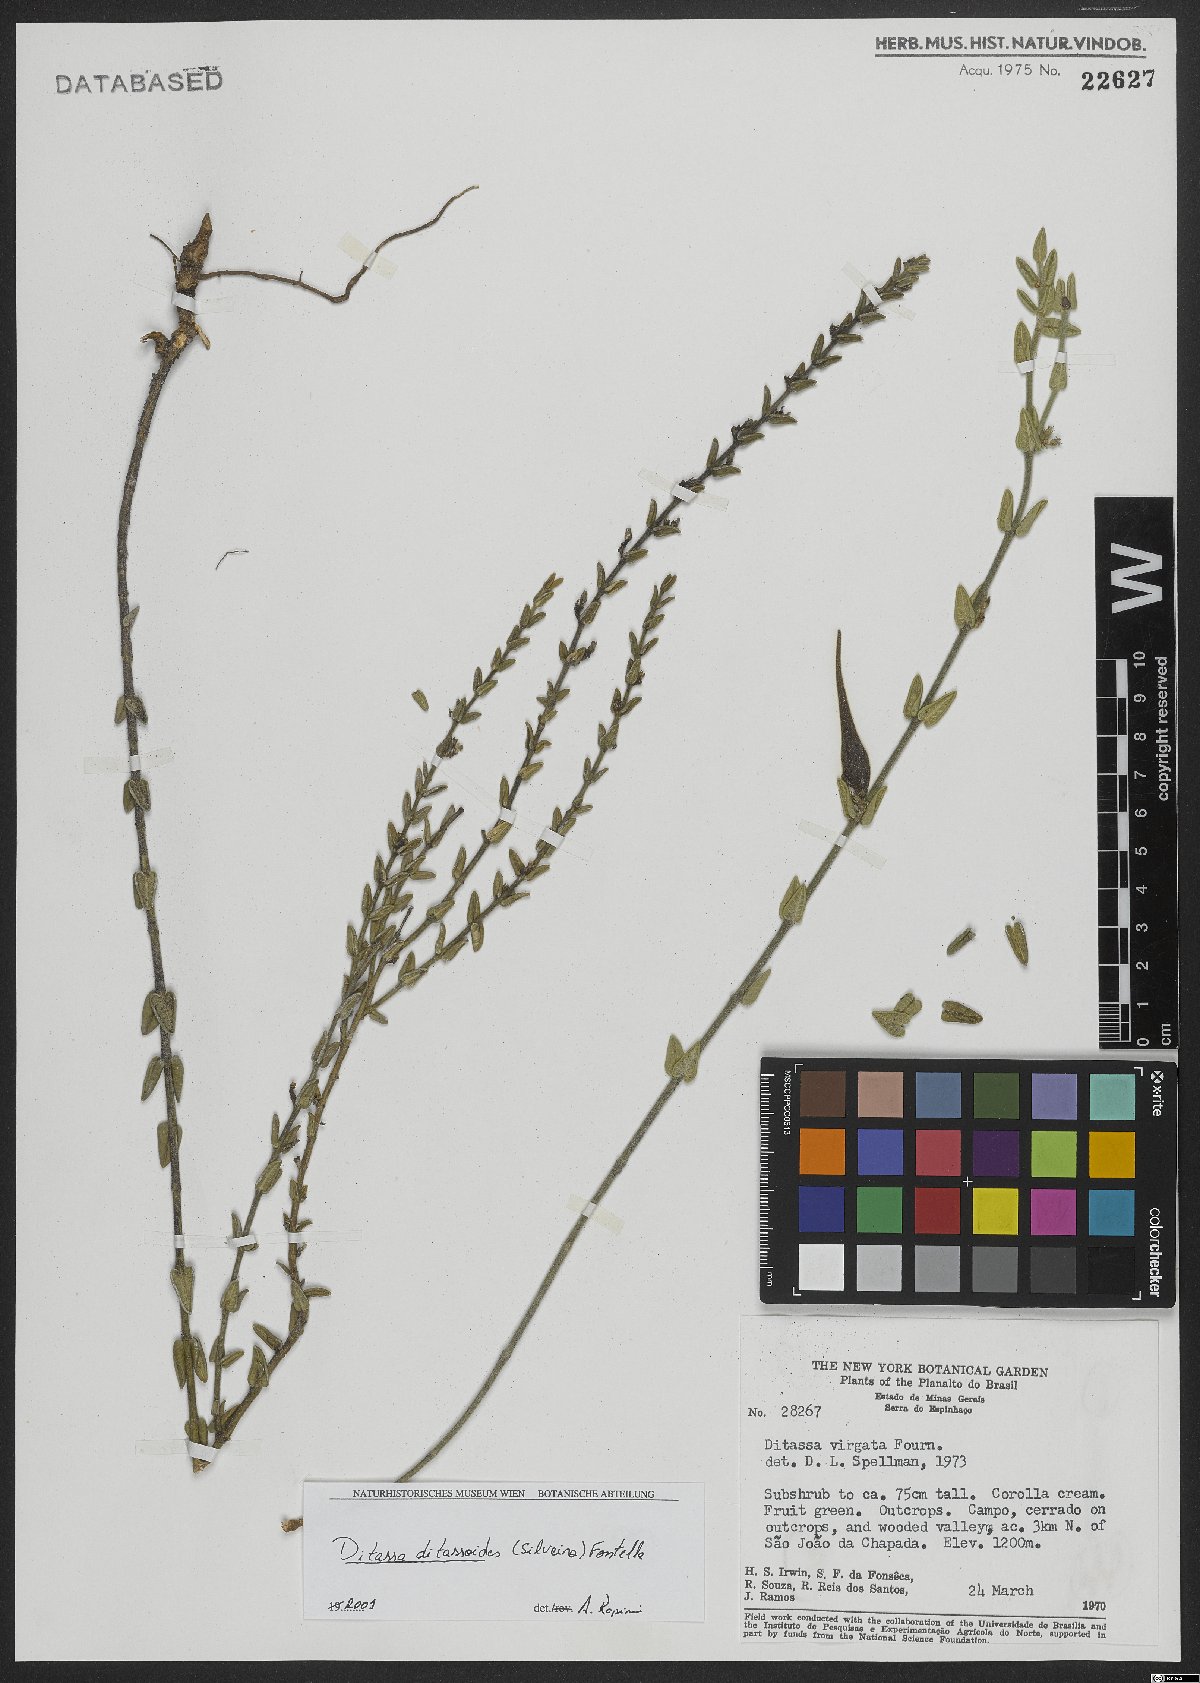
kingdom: Plantae
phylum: Tracheophyta
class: Magnoliopsida
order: Gentianales
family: Apocynaceae
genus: Minaria
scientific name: Minaria ditassoides
